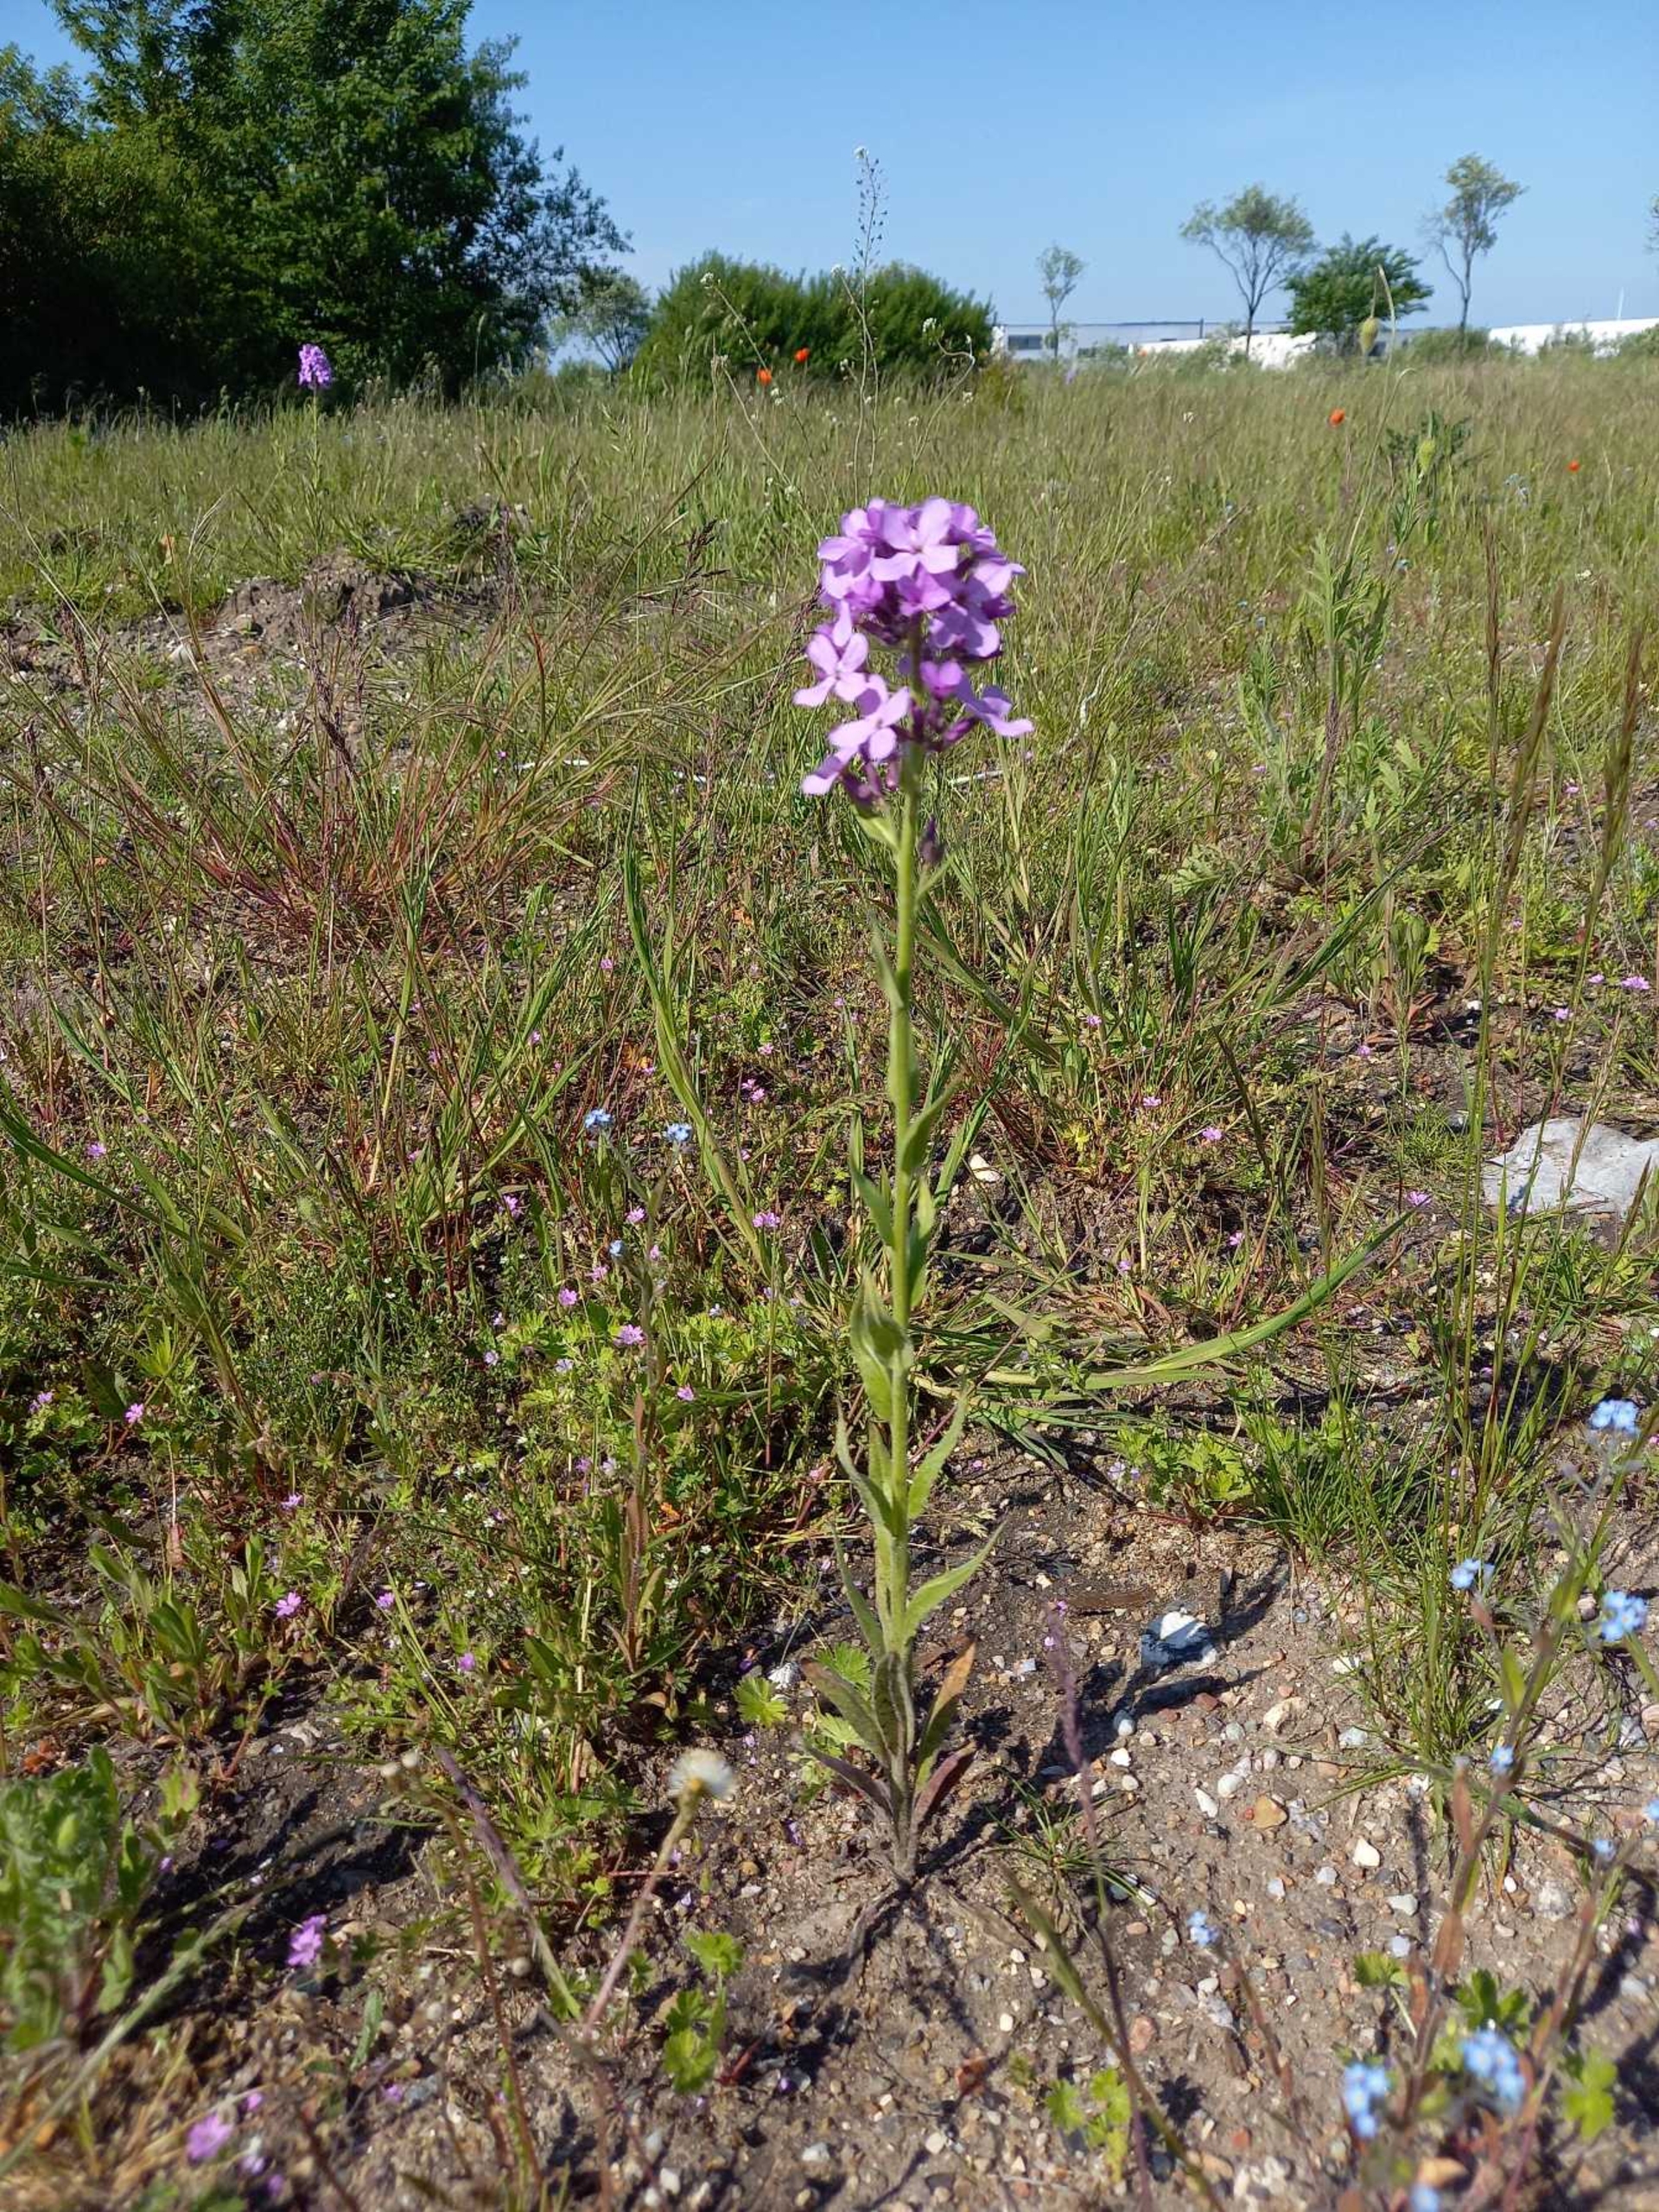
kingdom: Plantae
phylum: Tracheophyta
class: Magnoliopsida
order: Brassicales
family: Brassicaceae
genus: Hesperis
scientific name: Hesperis matronalis
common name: Aftenstjerne
